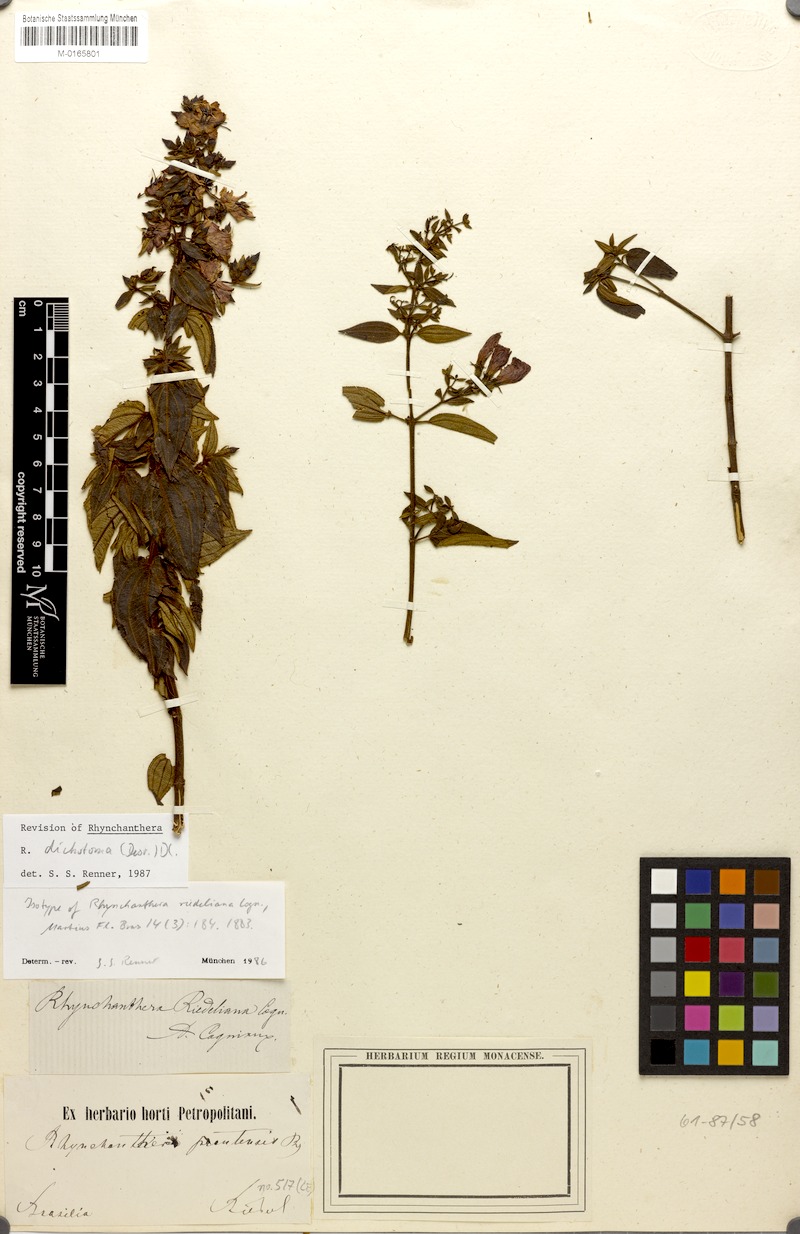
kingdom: Plantae
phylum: Tracheophyta
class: Magnoliopsida
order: Myrtales
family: Melastomataceae
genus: Rhynchanthera
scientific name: Rhynchanthera dichotoma
